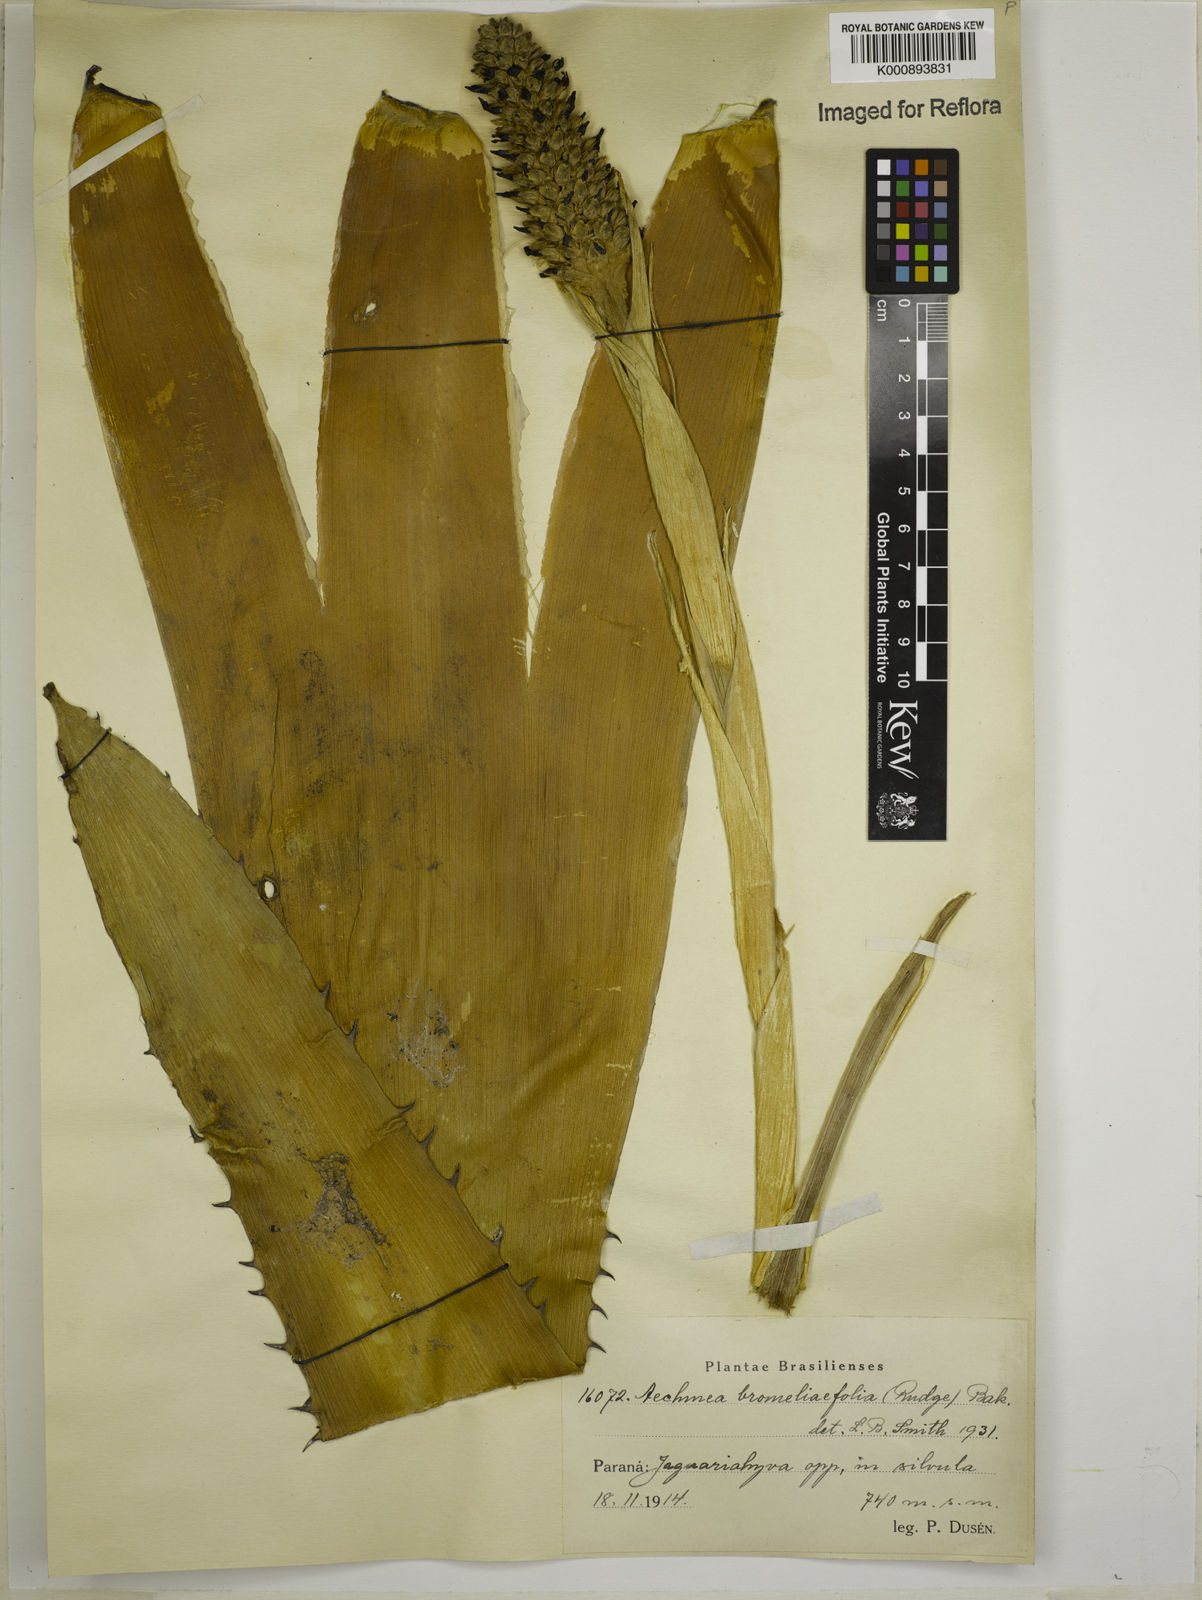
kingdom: Plantae
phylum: Tracheophyta
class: Liliopsida
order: Poales
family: Bromeliaceae
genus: Aechmea
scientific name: Aechmea
